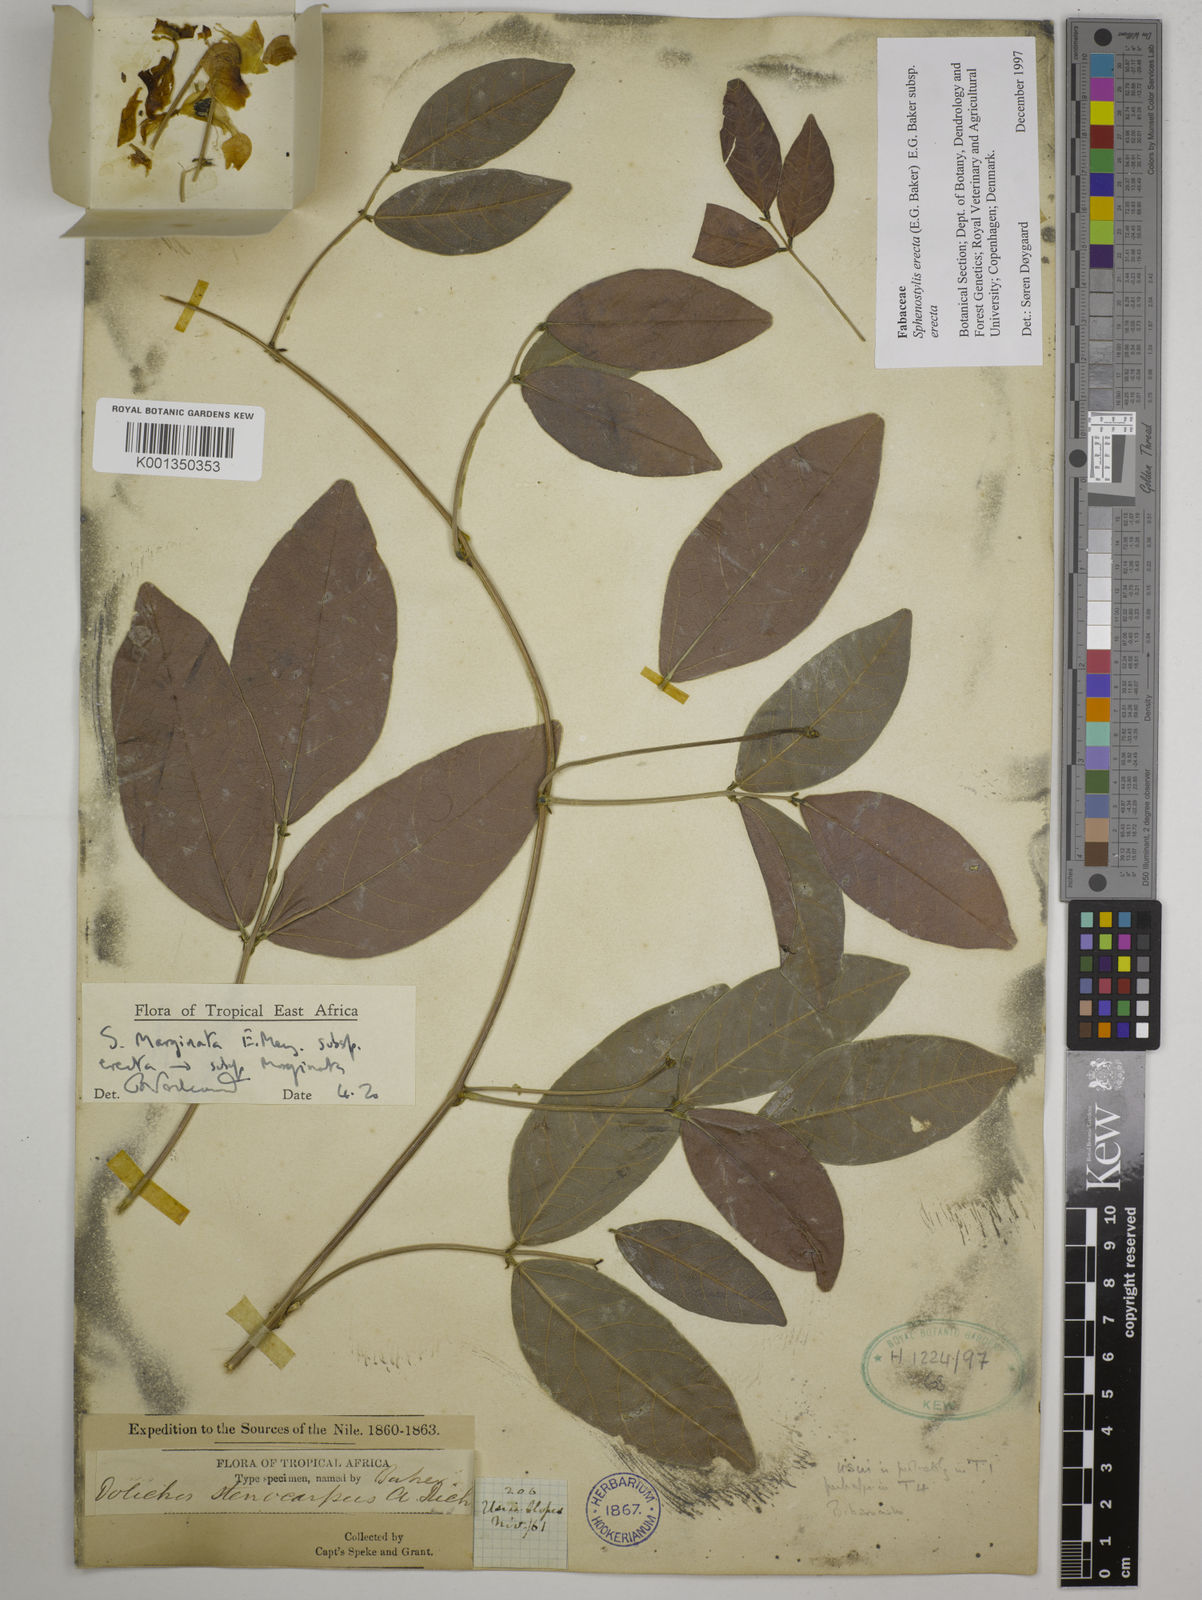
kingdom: Plantae
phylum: Tracheophyta
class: Magnoliopsida
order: Fabales
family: Fabaceae
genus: Sphenostylis
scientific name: Sphenostylis erecta
